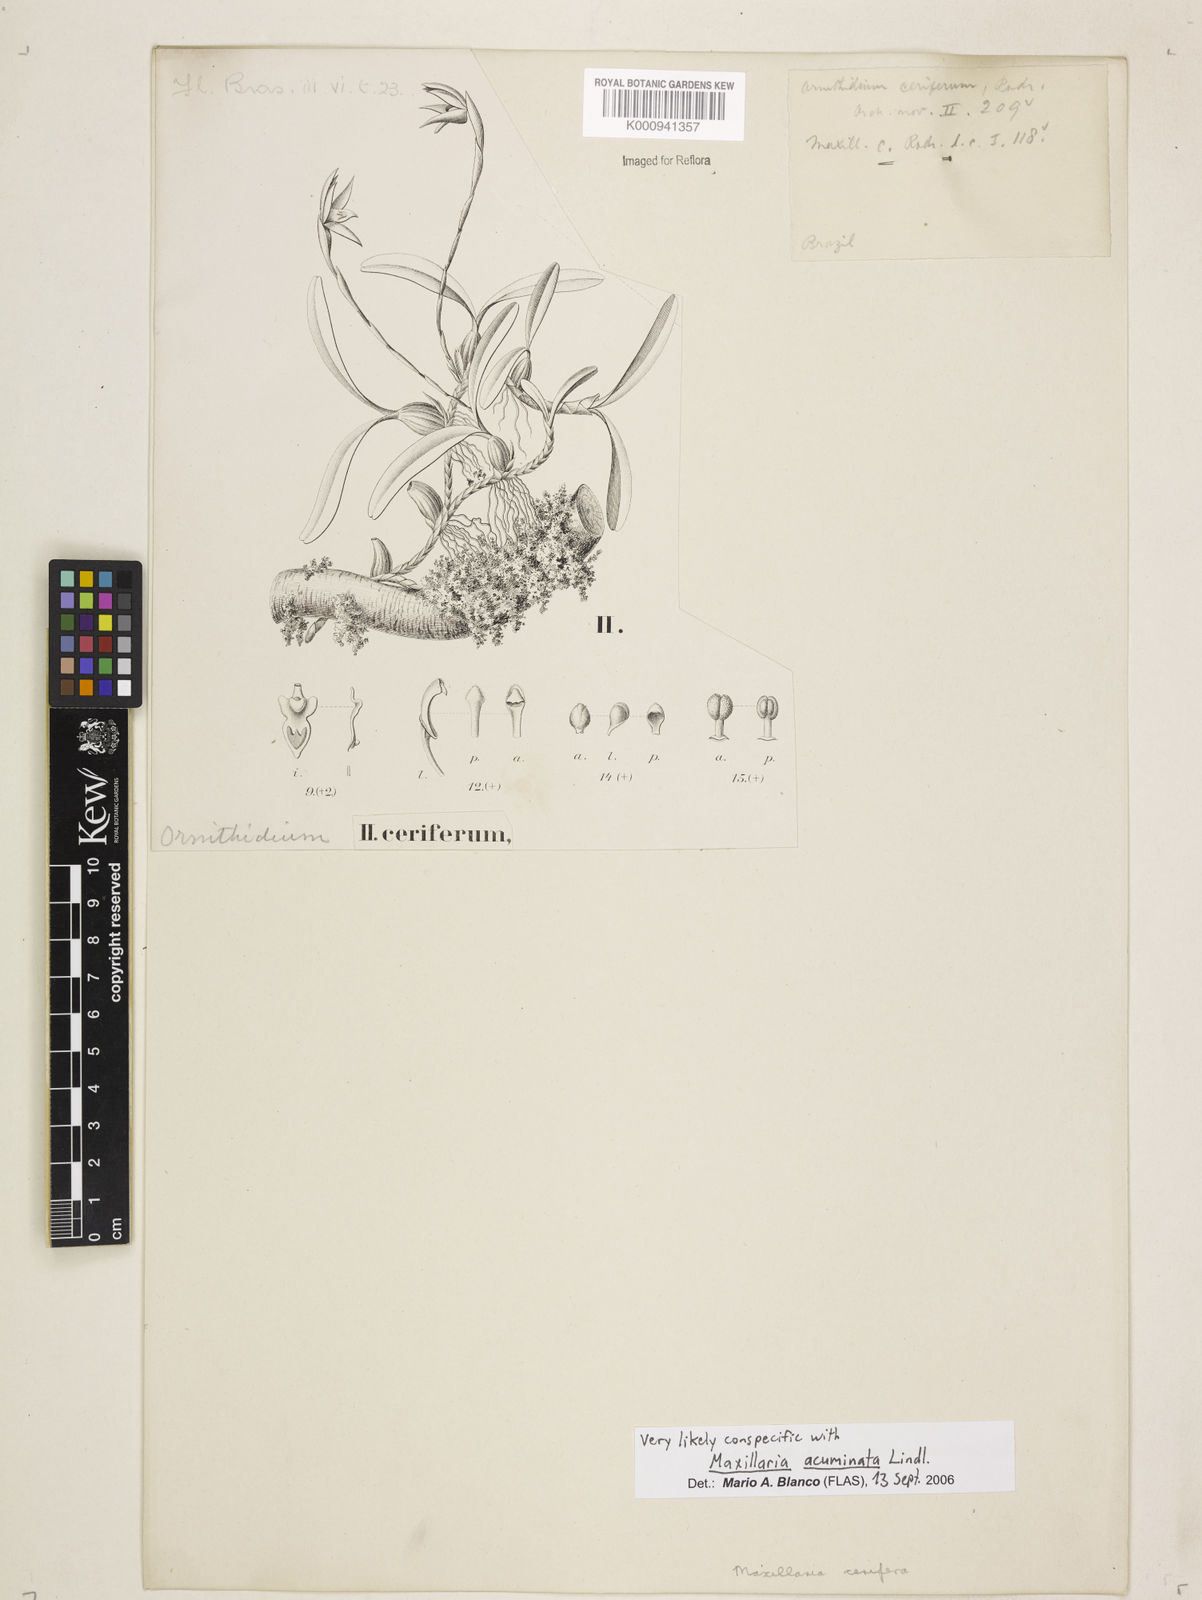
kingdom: Plantae
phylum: Tracheophyta
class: Liliopsida
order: Asparagales
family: Orchidaceae
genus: Maxillaria
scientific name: Maxillaria notylioglossa
